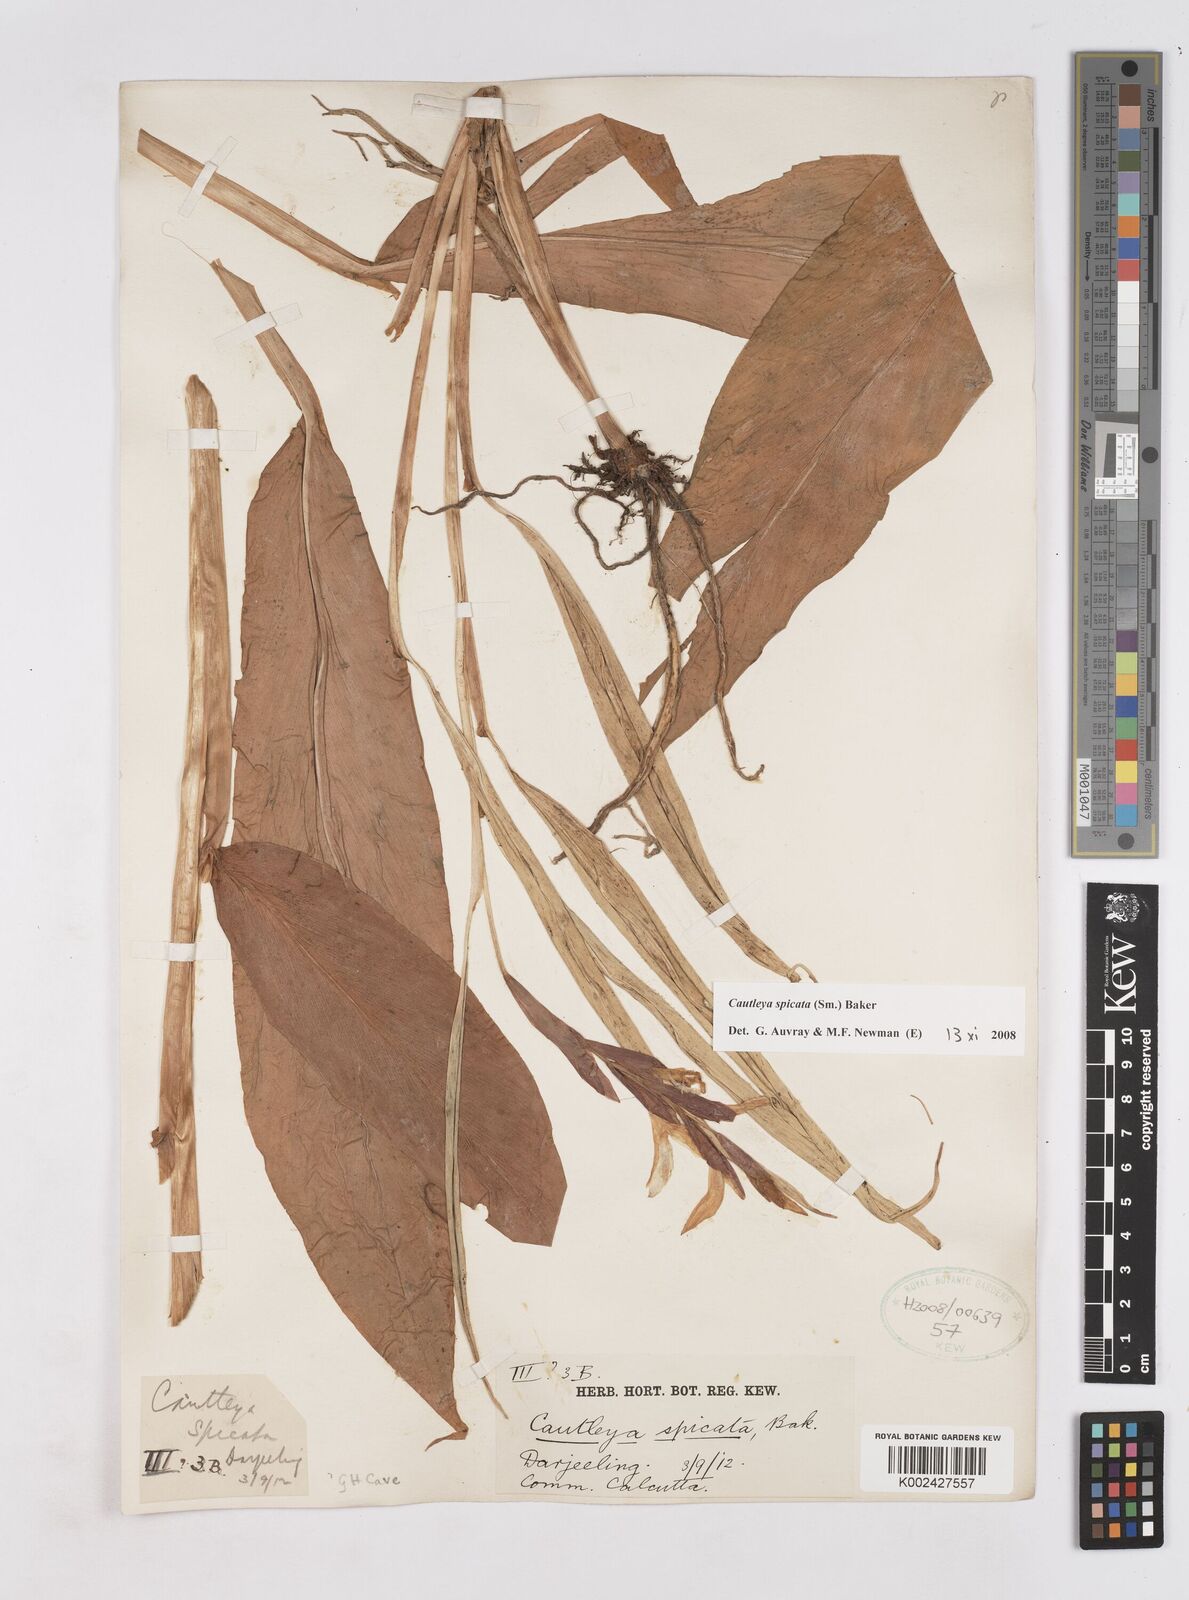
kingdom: Plantae
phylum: Tracheophyta
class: Liliopsida
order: Zingiberales
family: Zingiberaceae
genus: Cautleya
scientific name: Cautleya spicata
